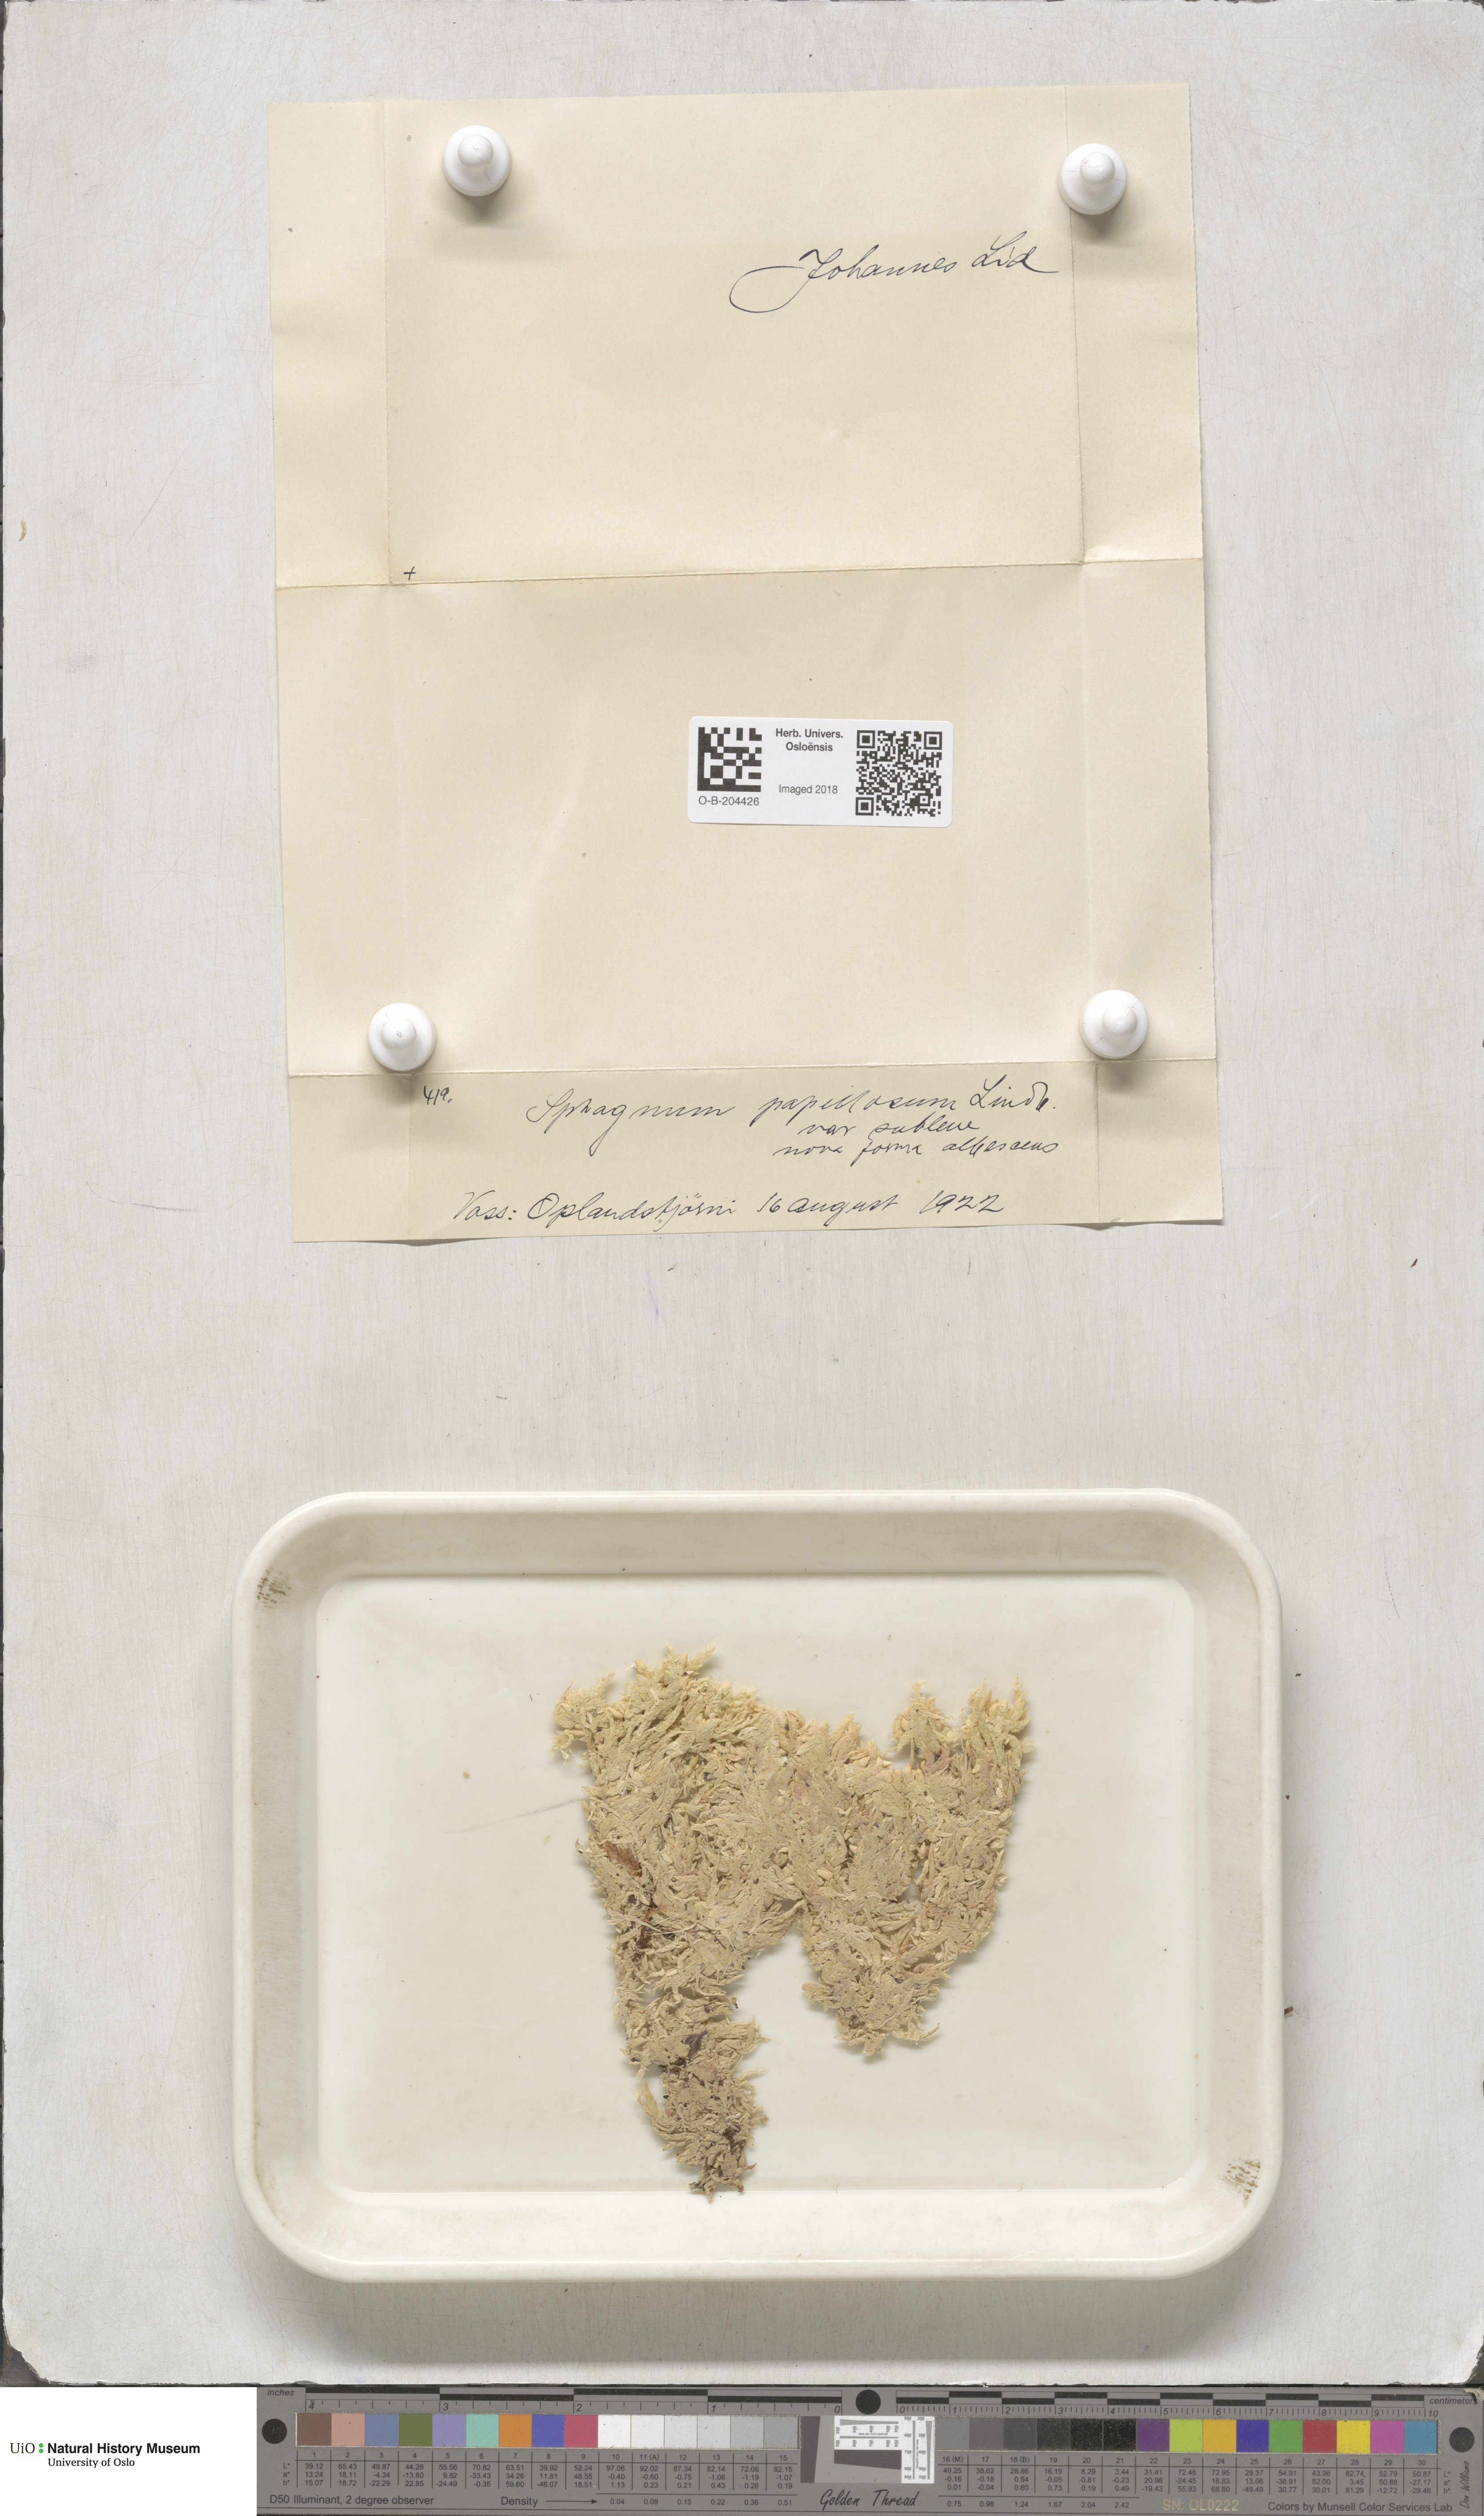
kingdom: Plantae
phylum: Bryophyta
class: Sphagnopsida
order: Sphagnales
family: Sphagnaceae
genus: Sphagnum
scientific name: Sphagnum papillosum
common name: Papillose peat moss
